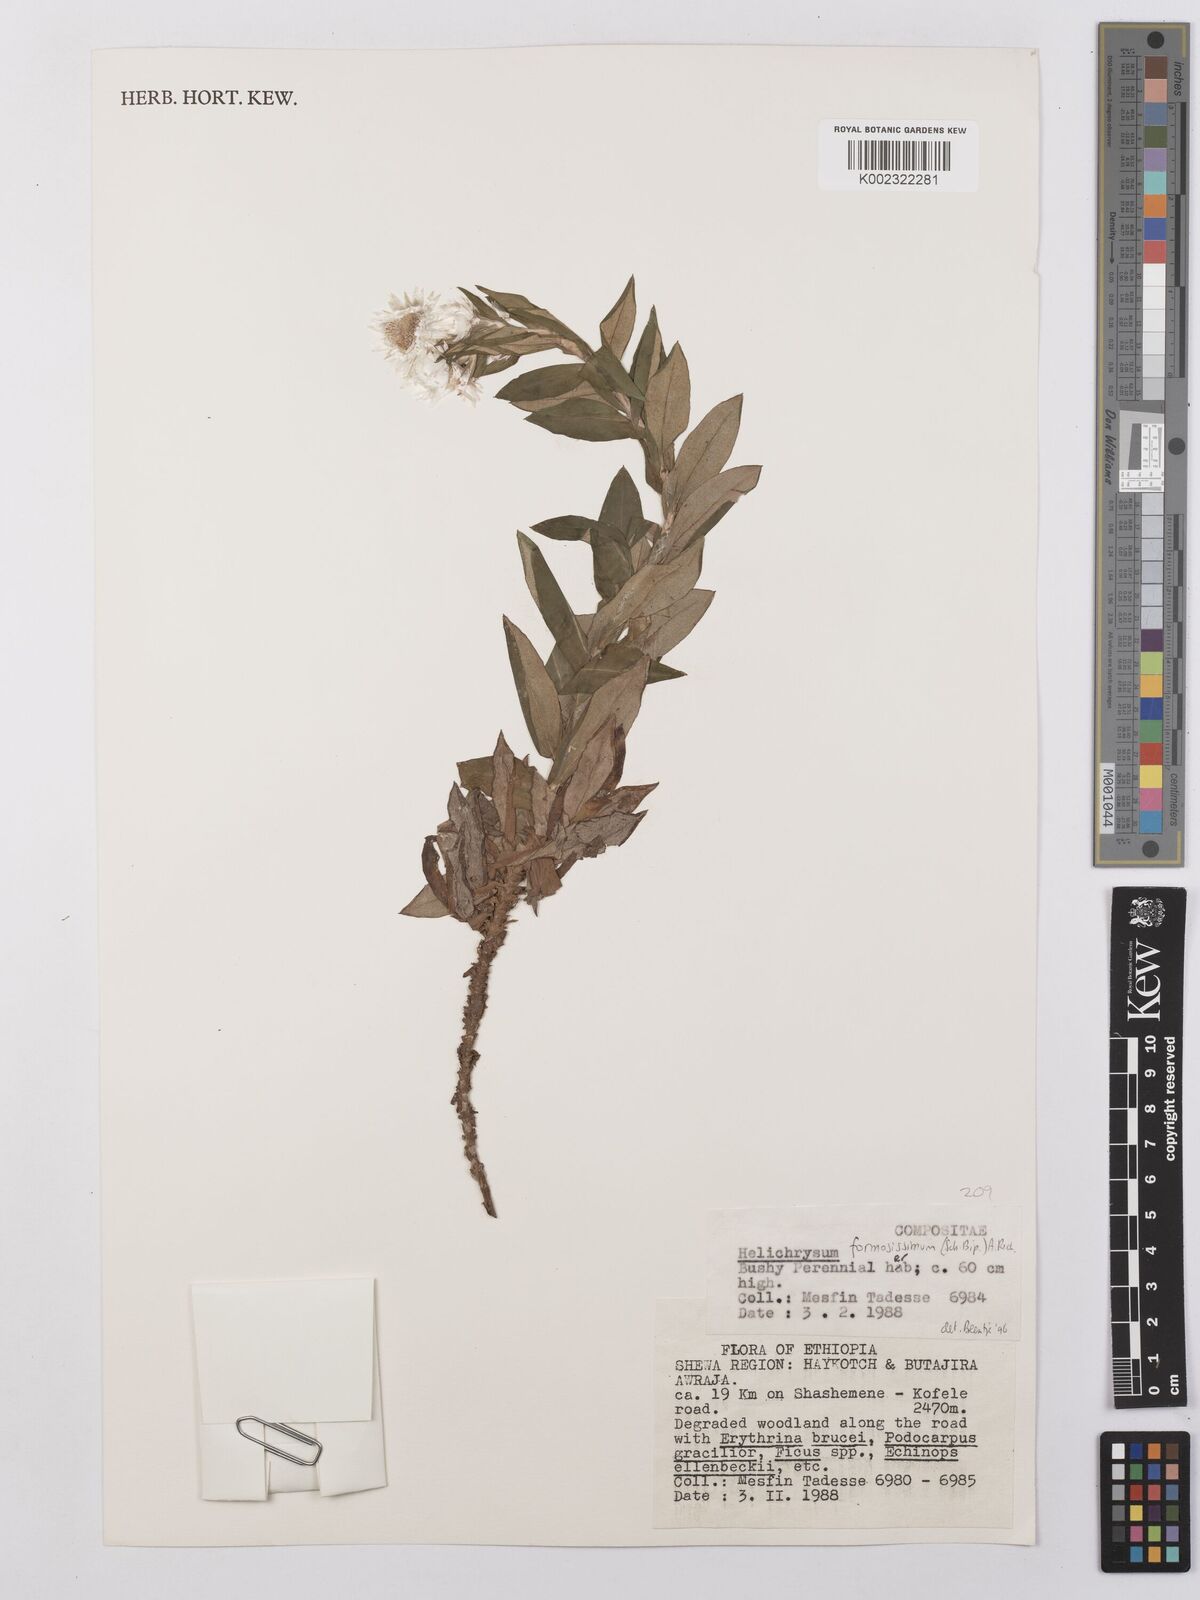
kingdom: Plantae
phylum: Tracheophyta
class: Magnoliopsida
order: Asterales
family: Asteraceae
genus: Helichrysum
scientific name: Helichrysum formosissimum
